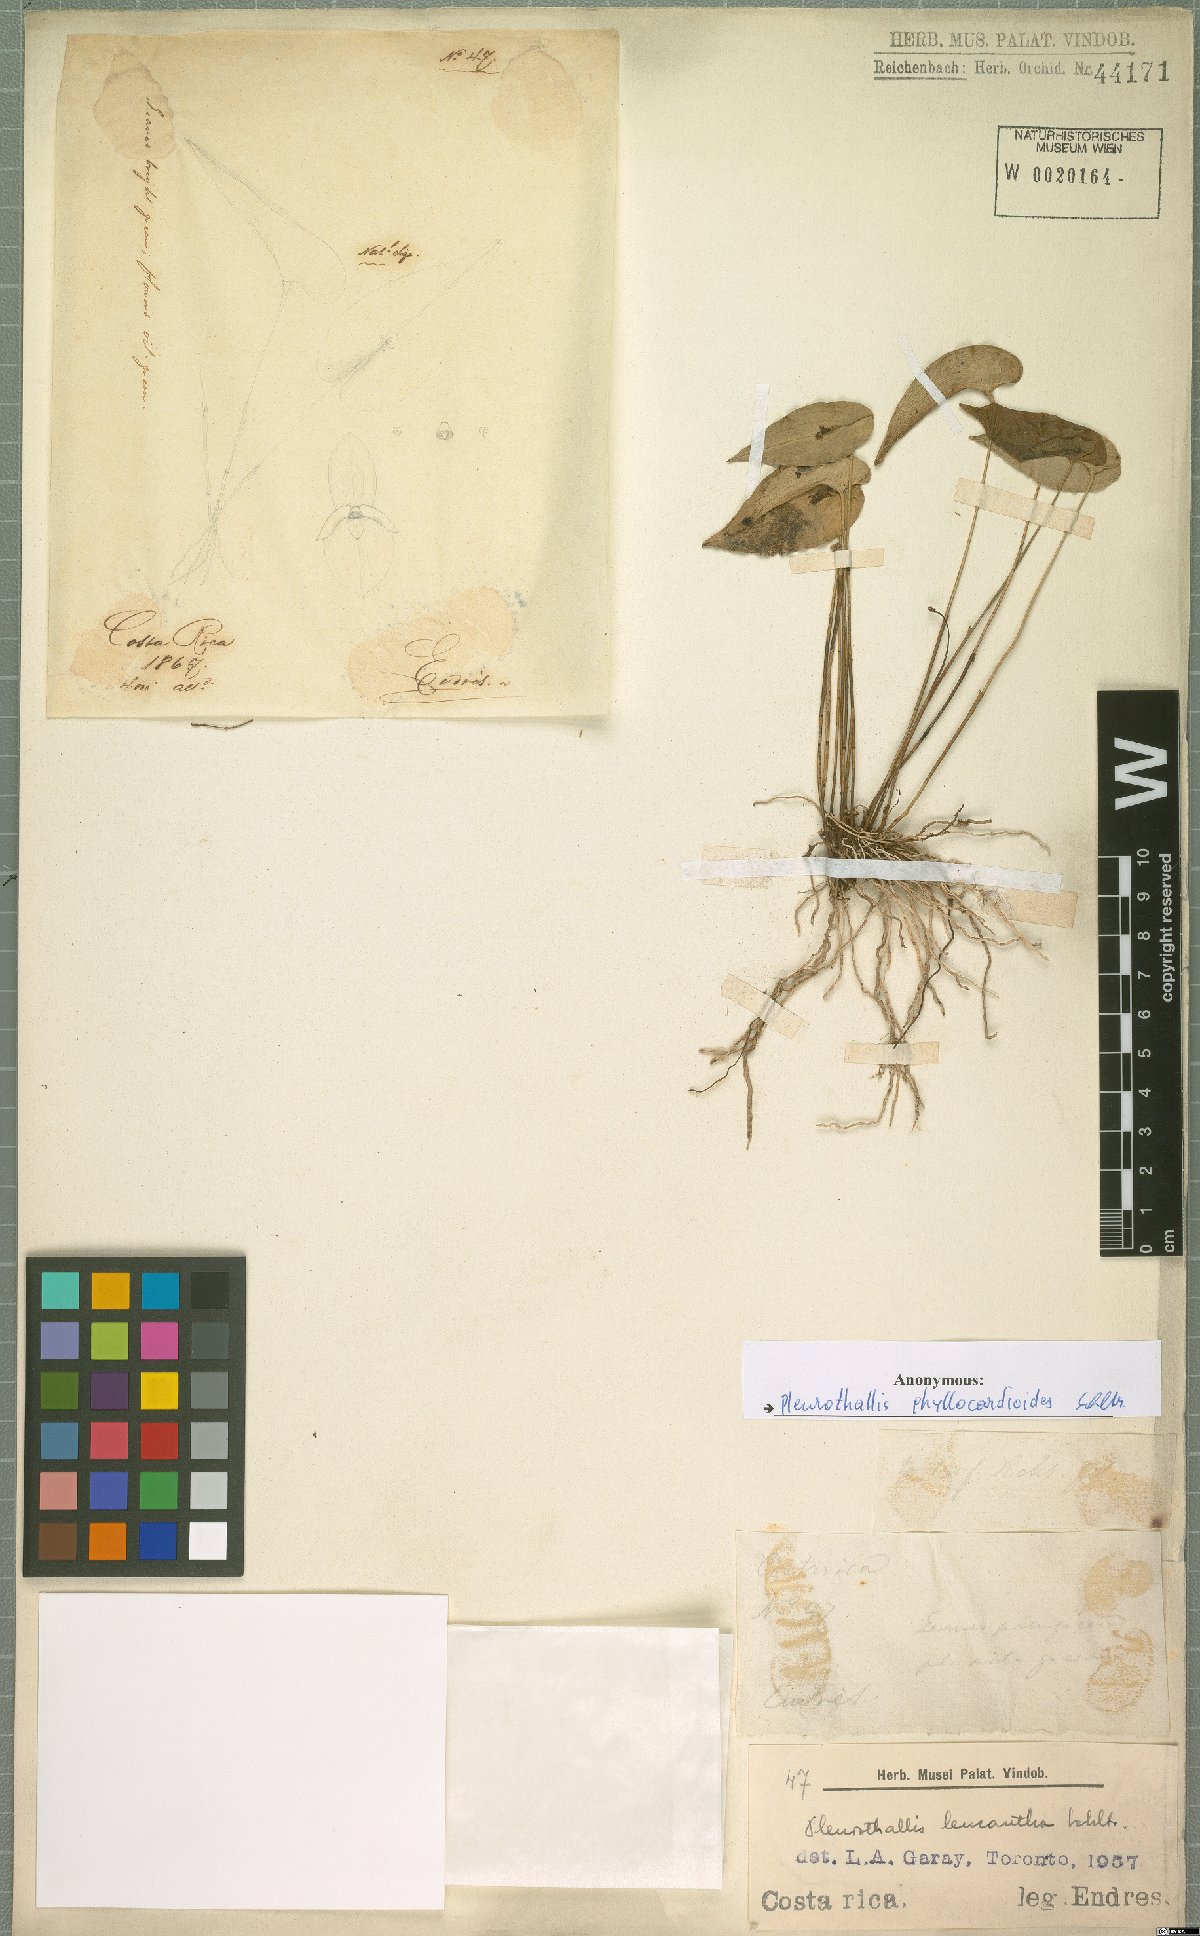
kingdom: Plantae
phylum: Tracheophyta
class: Liliopsida
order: Asparagales
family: Orchidaceae
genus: Pleurothallis
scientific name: Pleurothallis phyllocardioides
